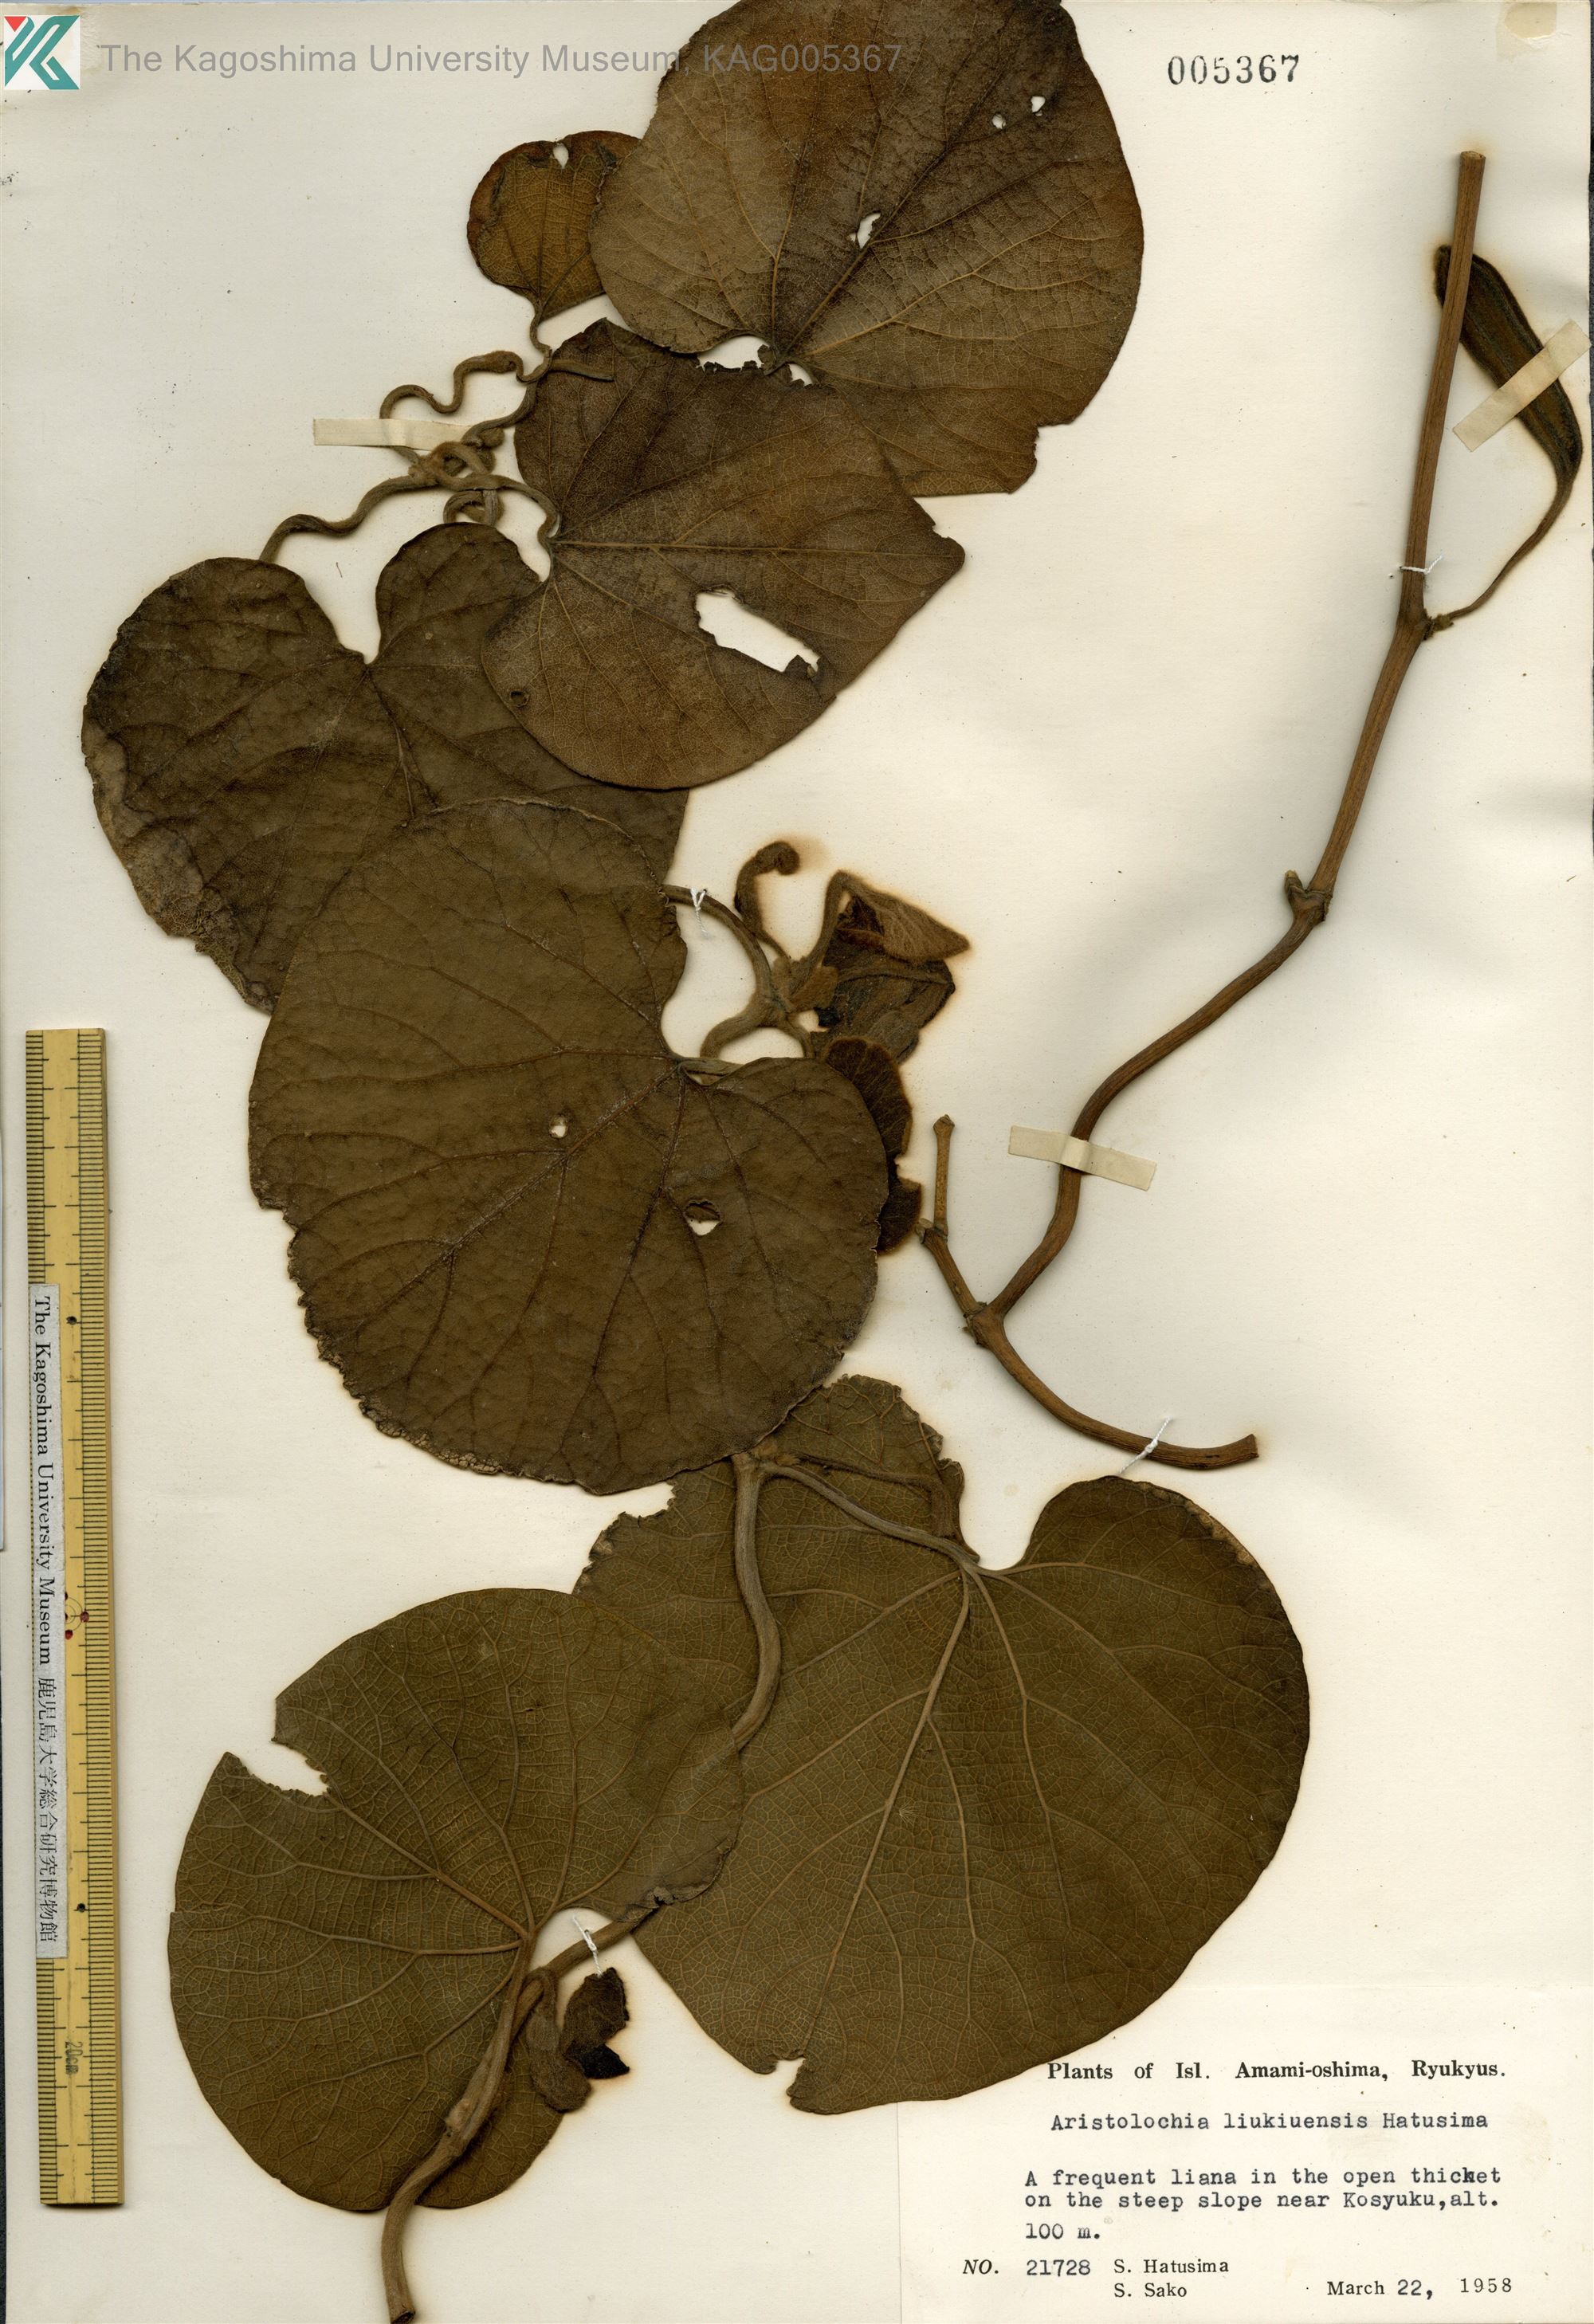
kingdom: Plantae
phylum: Tracheophyta
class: Magnoliopsida
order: Piperales
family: Aristolochiaceae
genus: Isotrema
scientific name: Isotrema liukiuense
